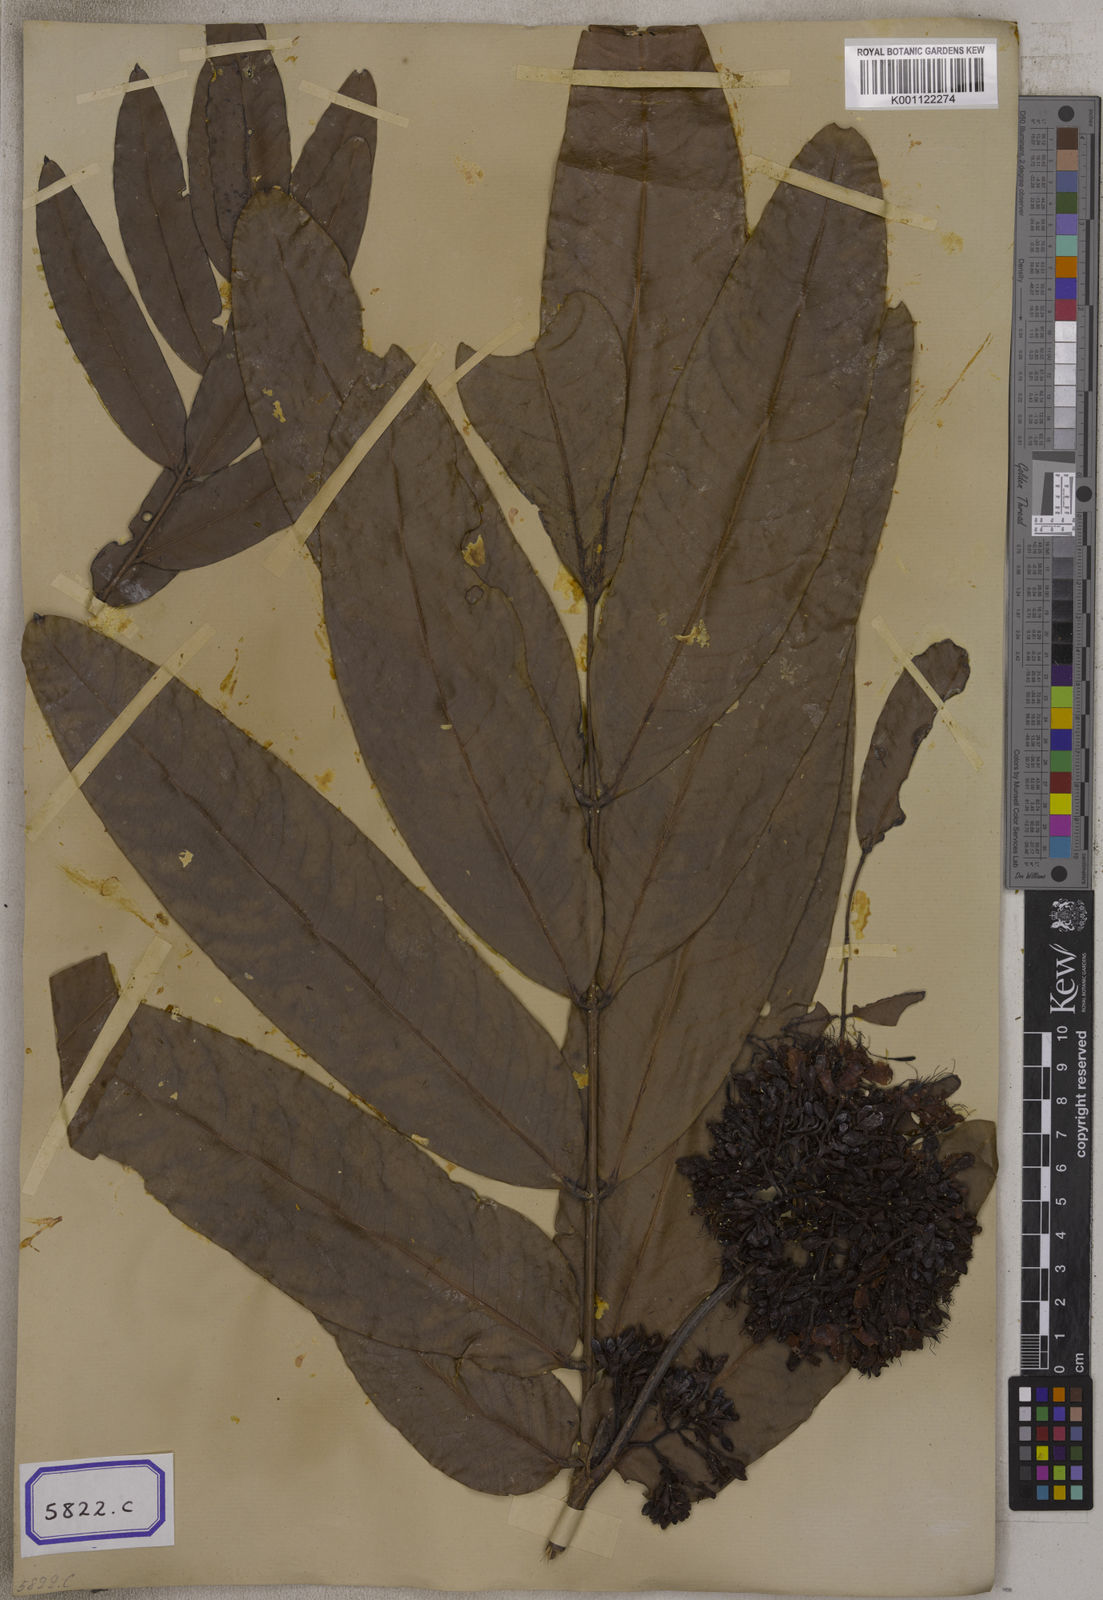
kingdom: Plantae
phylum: Tracheophyta
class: Magnoliopsida
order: Fabales
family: Fabaceae
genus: Saraca
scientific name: Saraca asoca
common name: Asoka-tree
